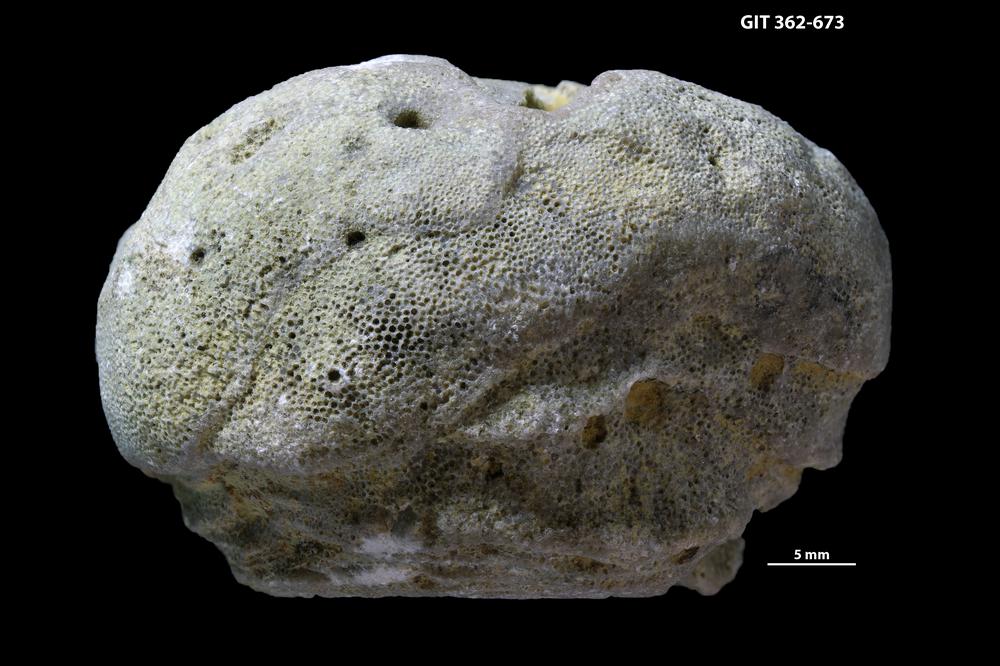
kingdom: Animalia
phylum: Bryozoa
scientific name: Bryozoa
